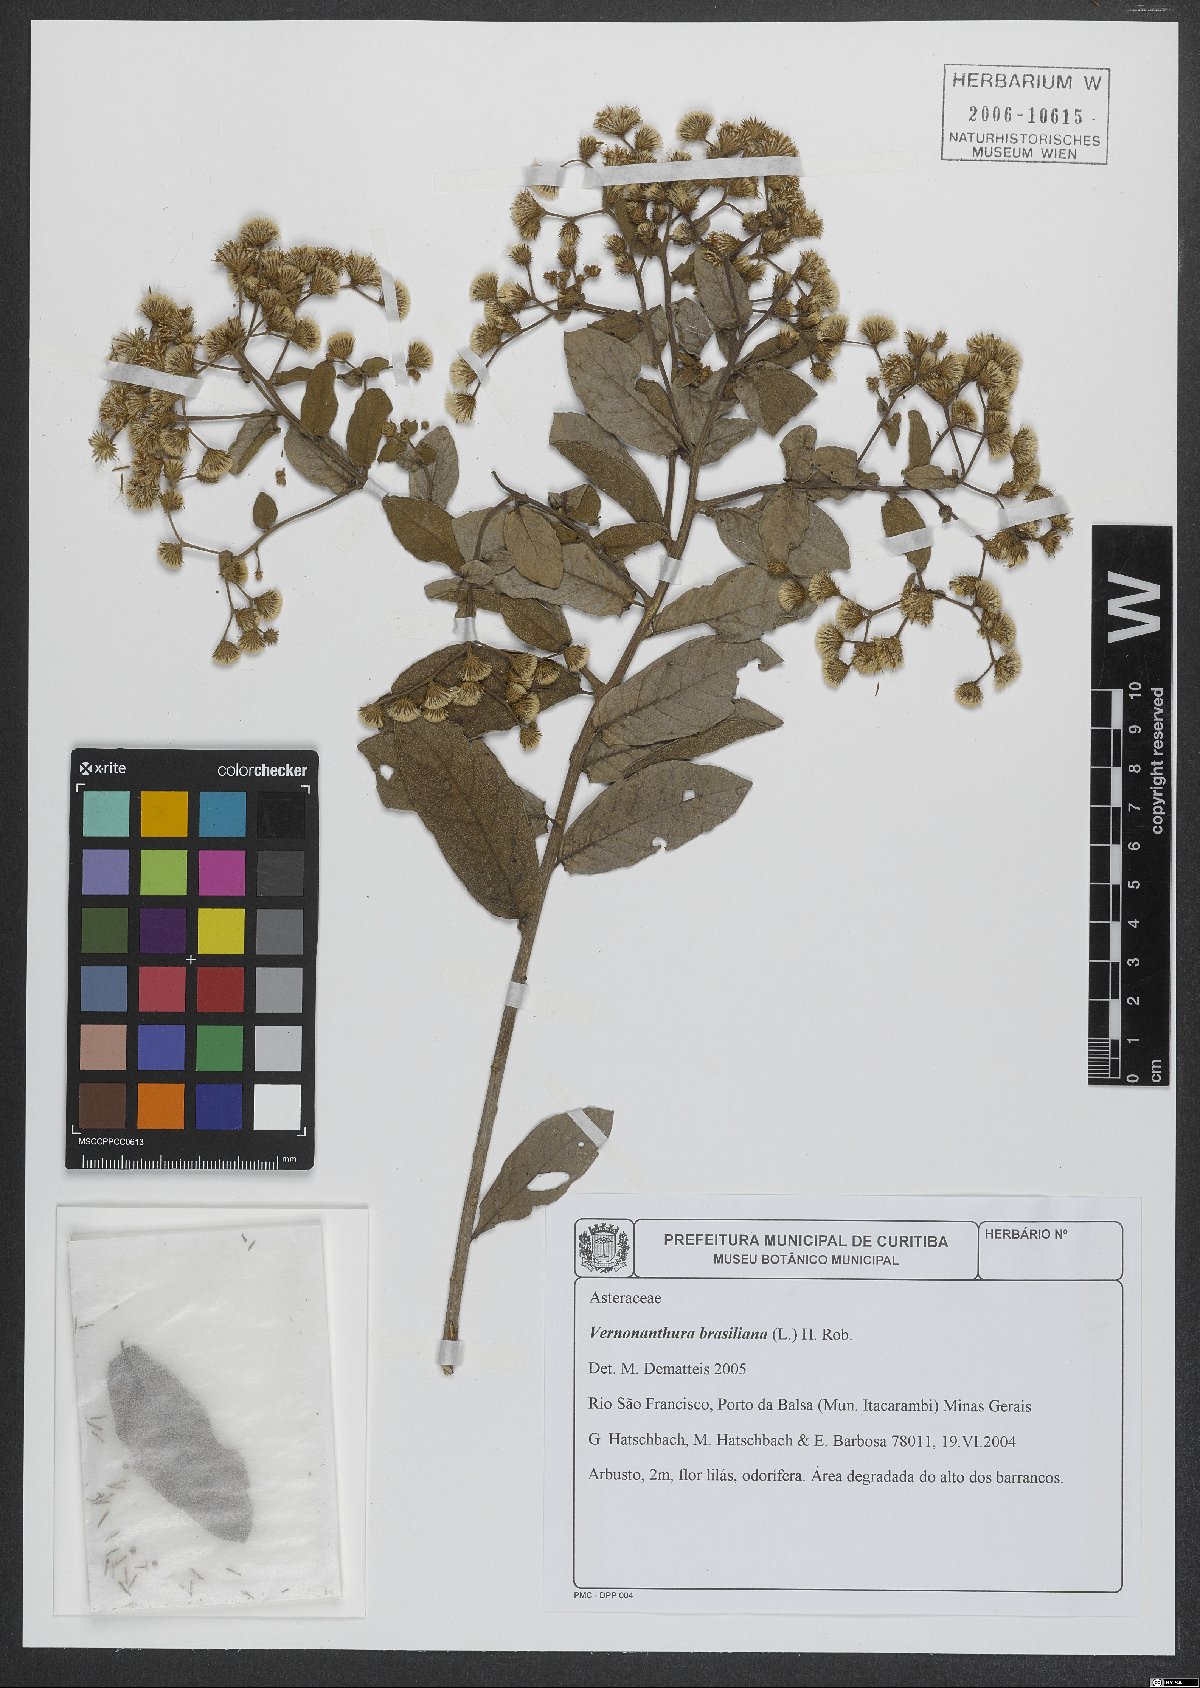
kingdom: Plantae
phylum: Tracheophyta
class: Magnoliopsida
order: Asterales
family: Asteraceae
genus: Vernonanthura
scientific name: Vernonanthura brasiliana
